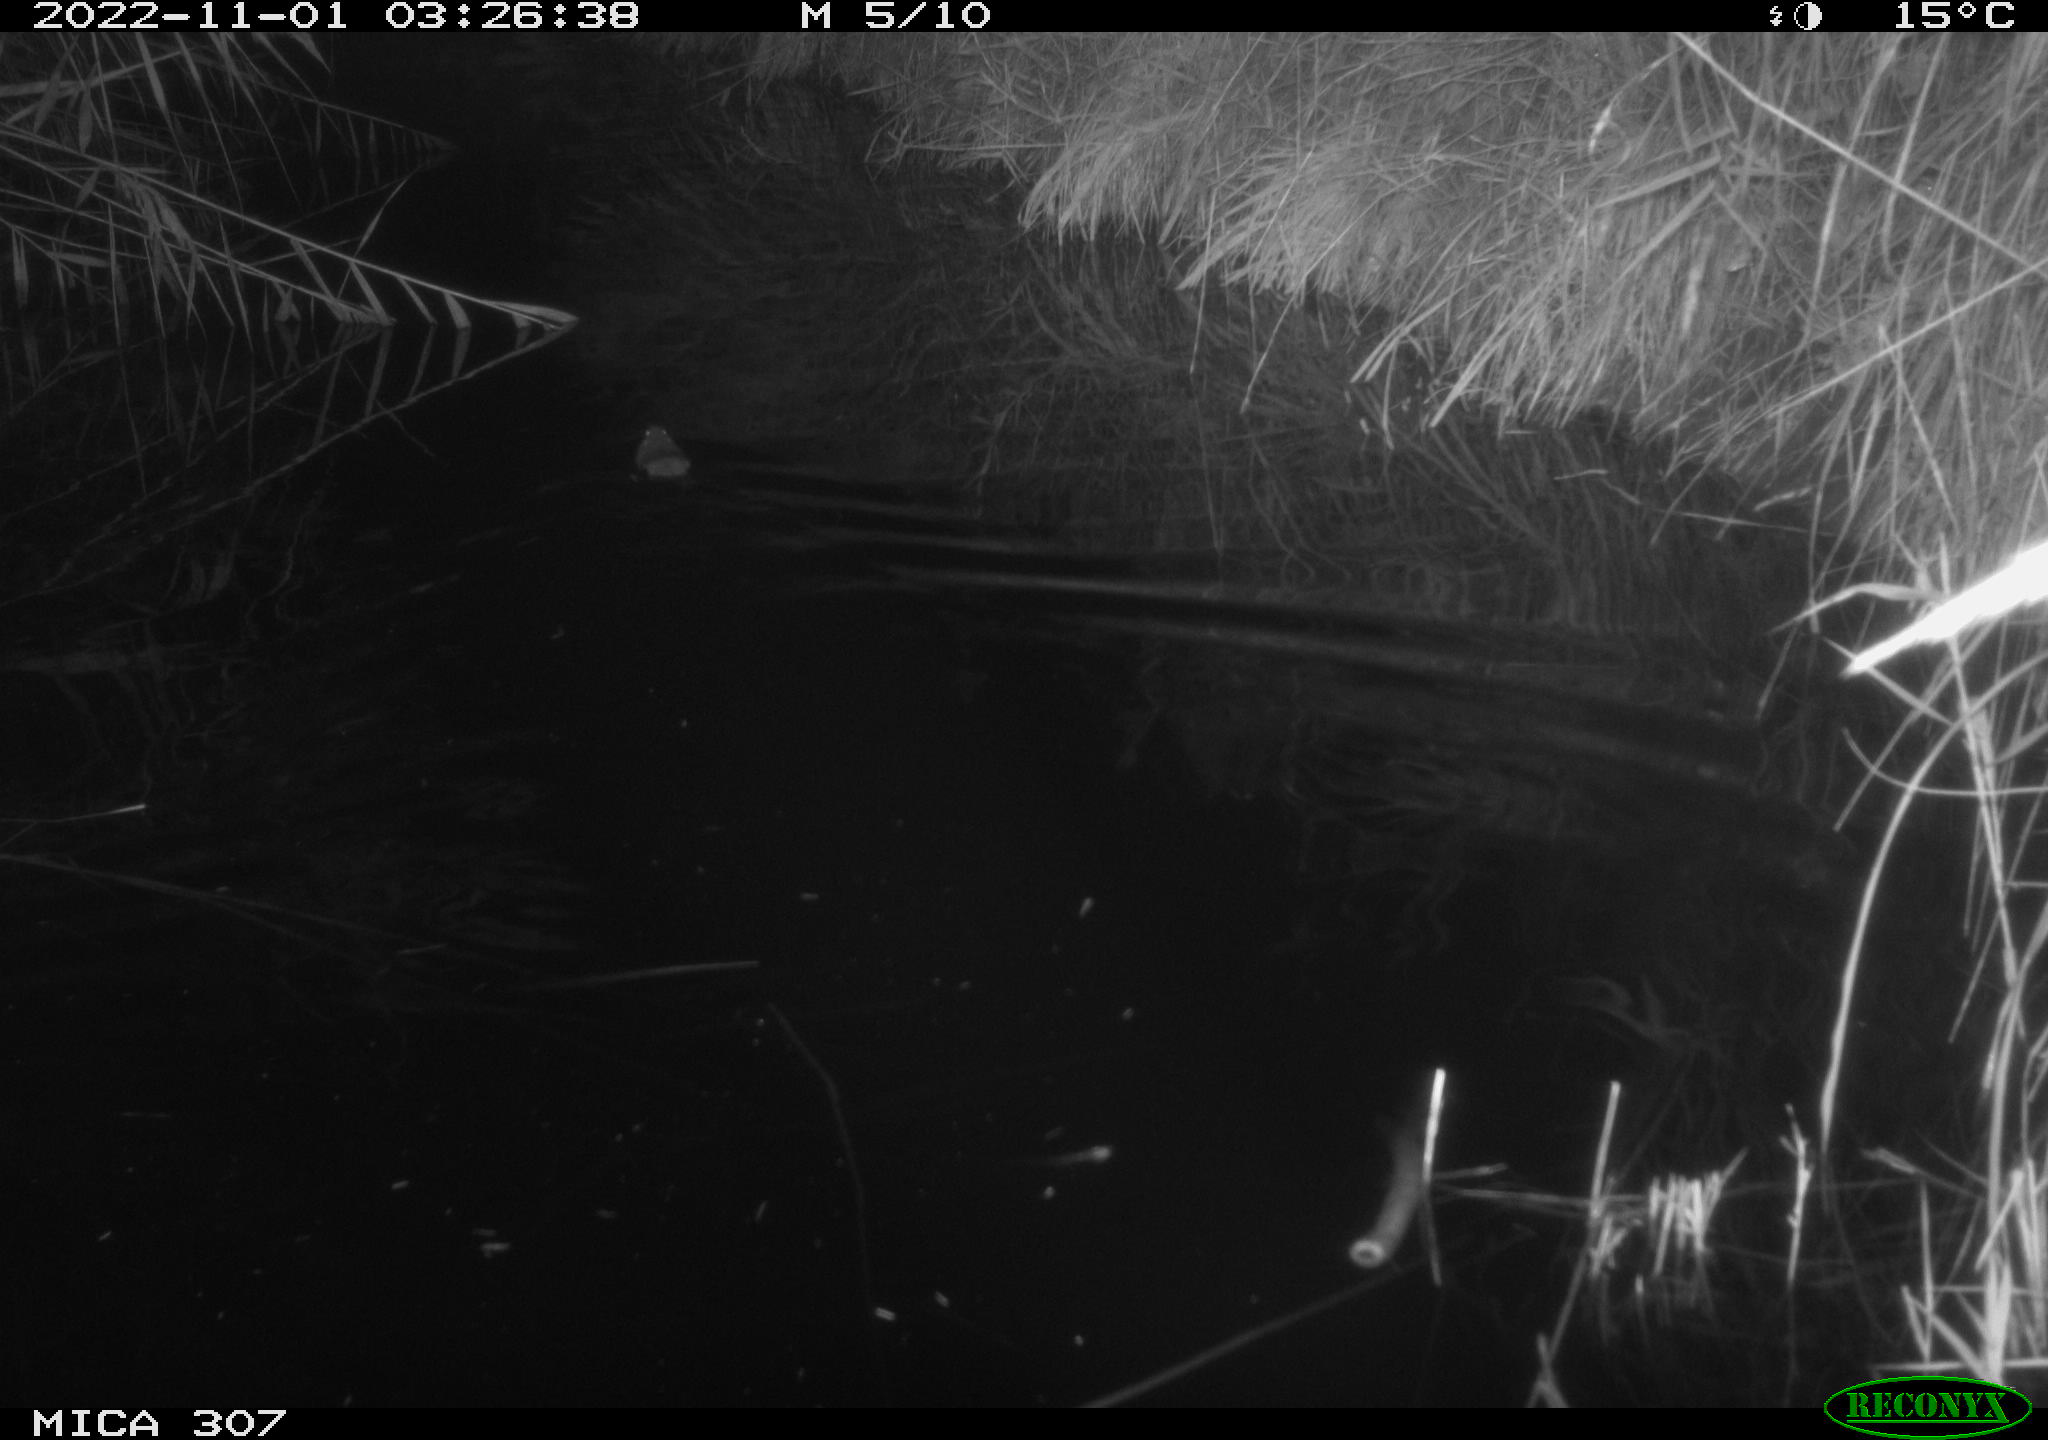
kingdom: Animalia
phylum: Chordata
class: Mammalia
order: Rodentia
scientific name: Rodentia
